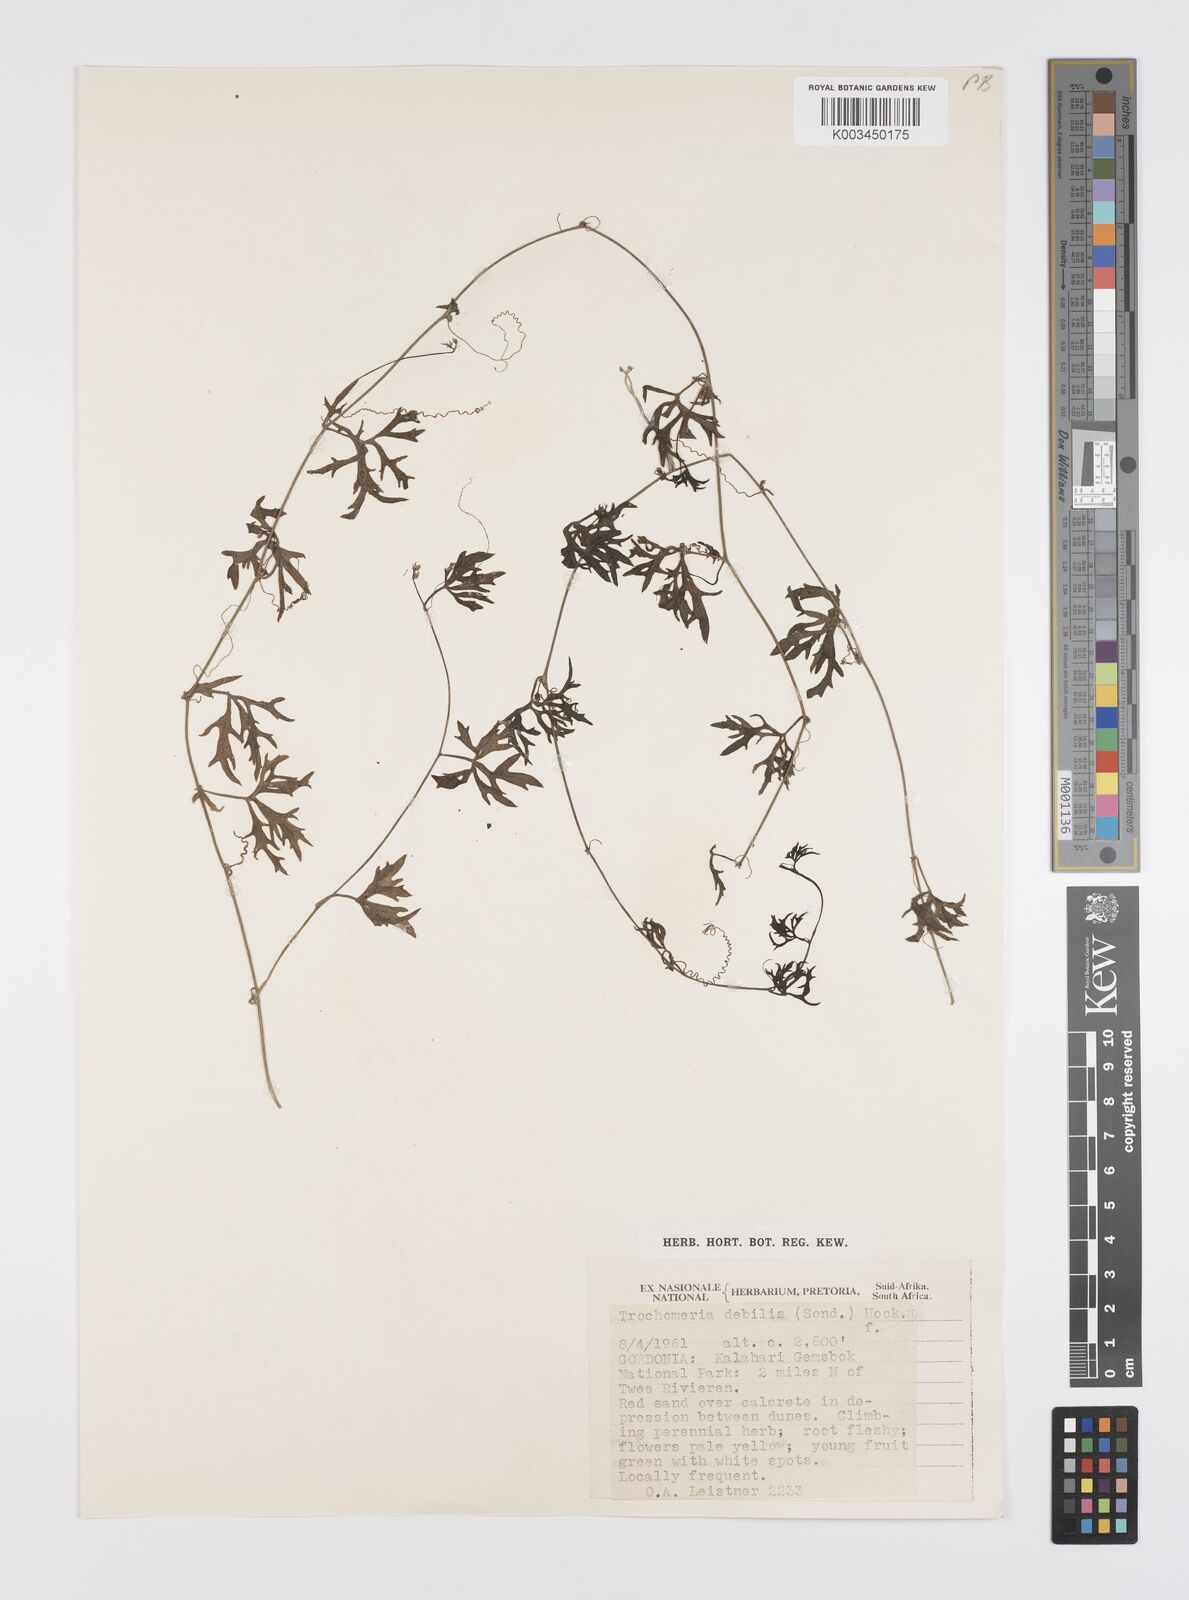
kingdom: Plantae
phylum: Tracheophyta
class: Magnoliopsida
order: Cucurbitales
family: Cucurbitaceae
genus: Trochomeria
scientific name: Trochomeria debilis
